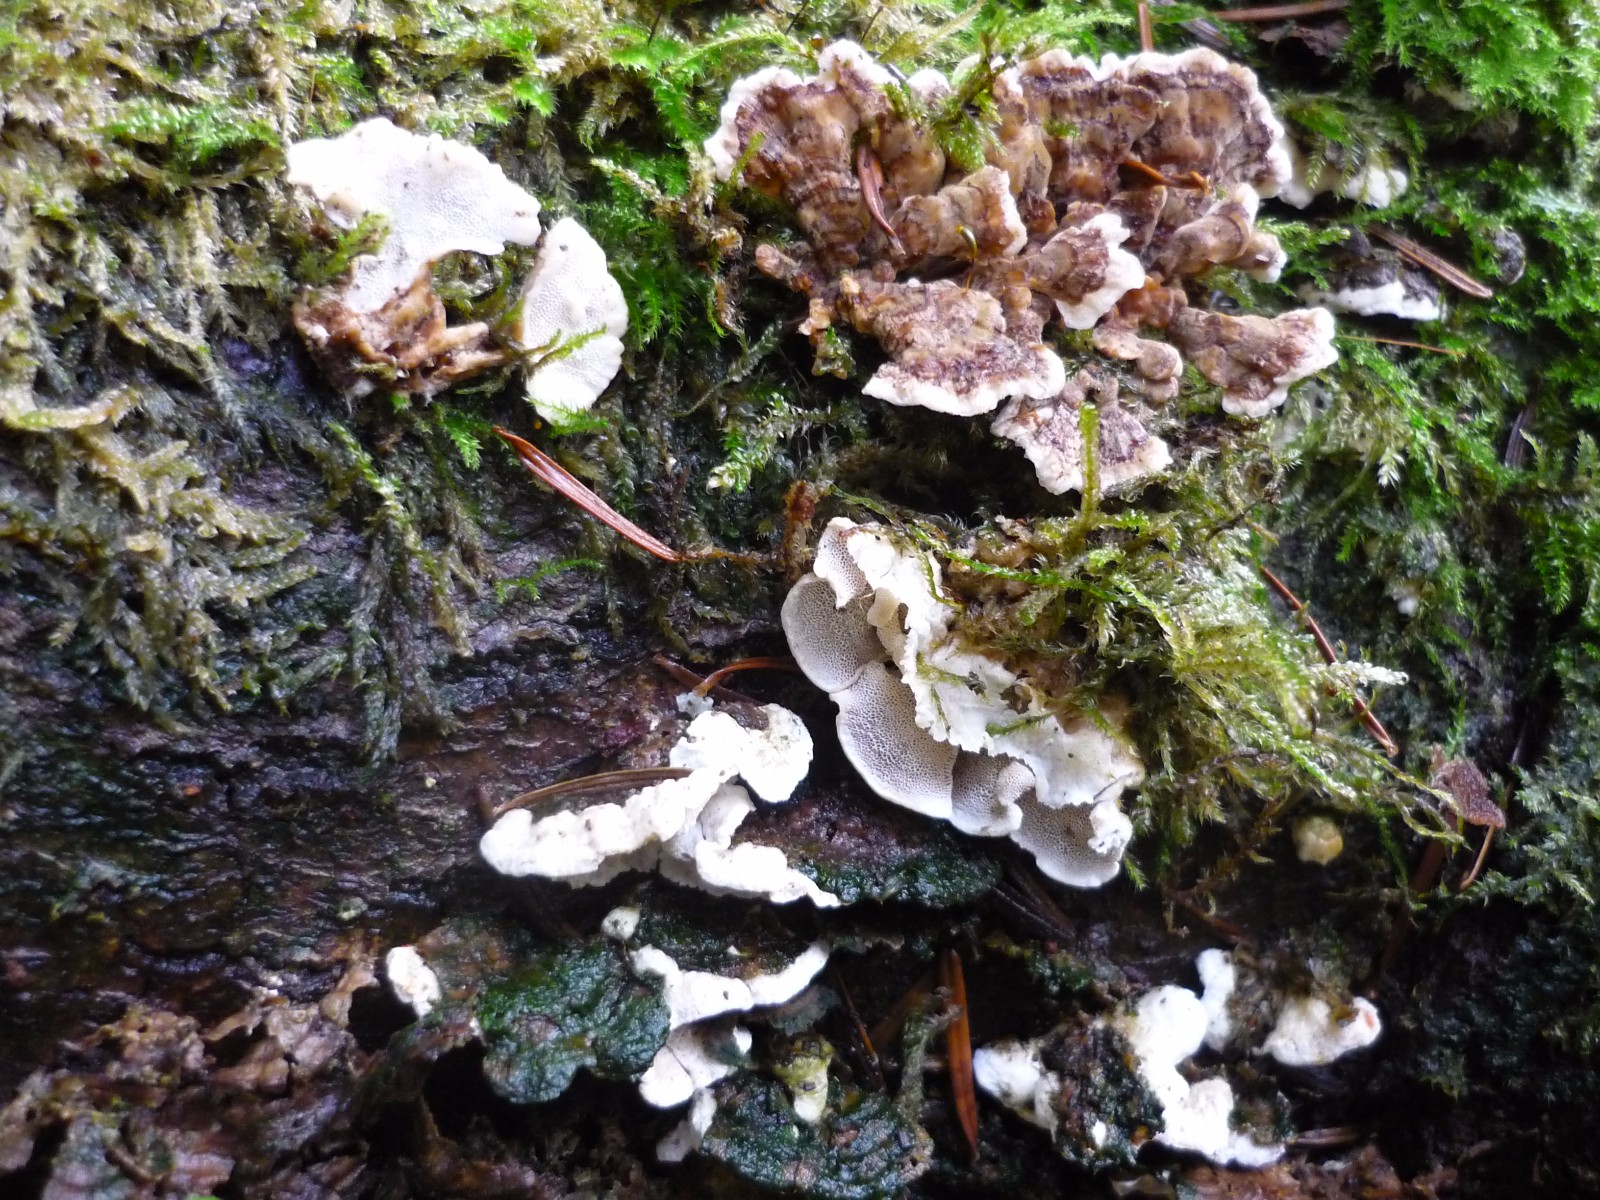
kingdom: Fungi
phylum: Basidiomycota
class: Agaricomycetes
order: Polyporales
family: Incrustoporiaceae
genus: Skeletocutis
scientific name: Skeletocutis carneogrisea
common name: rødgrå krystalporesvamp
